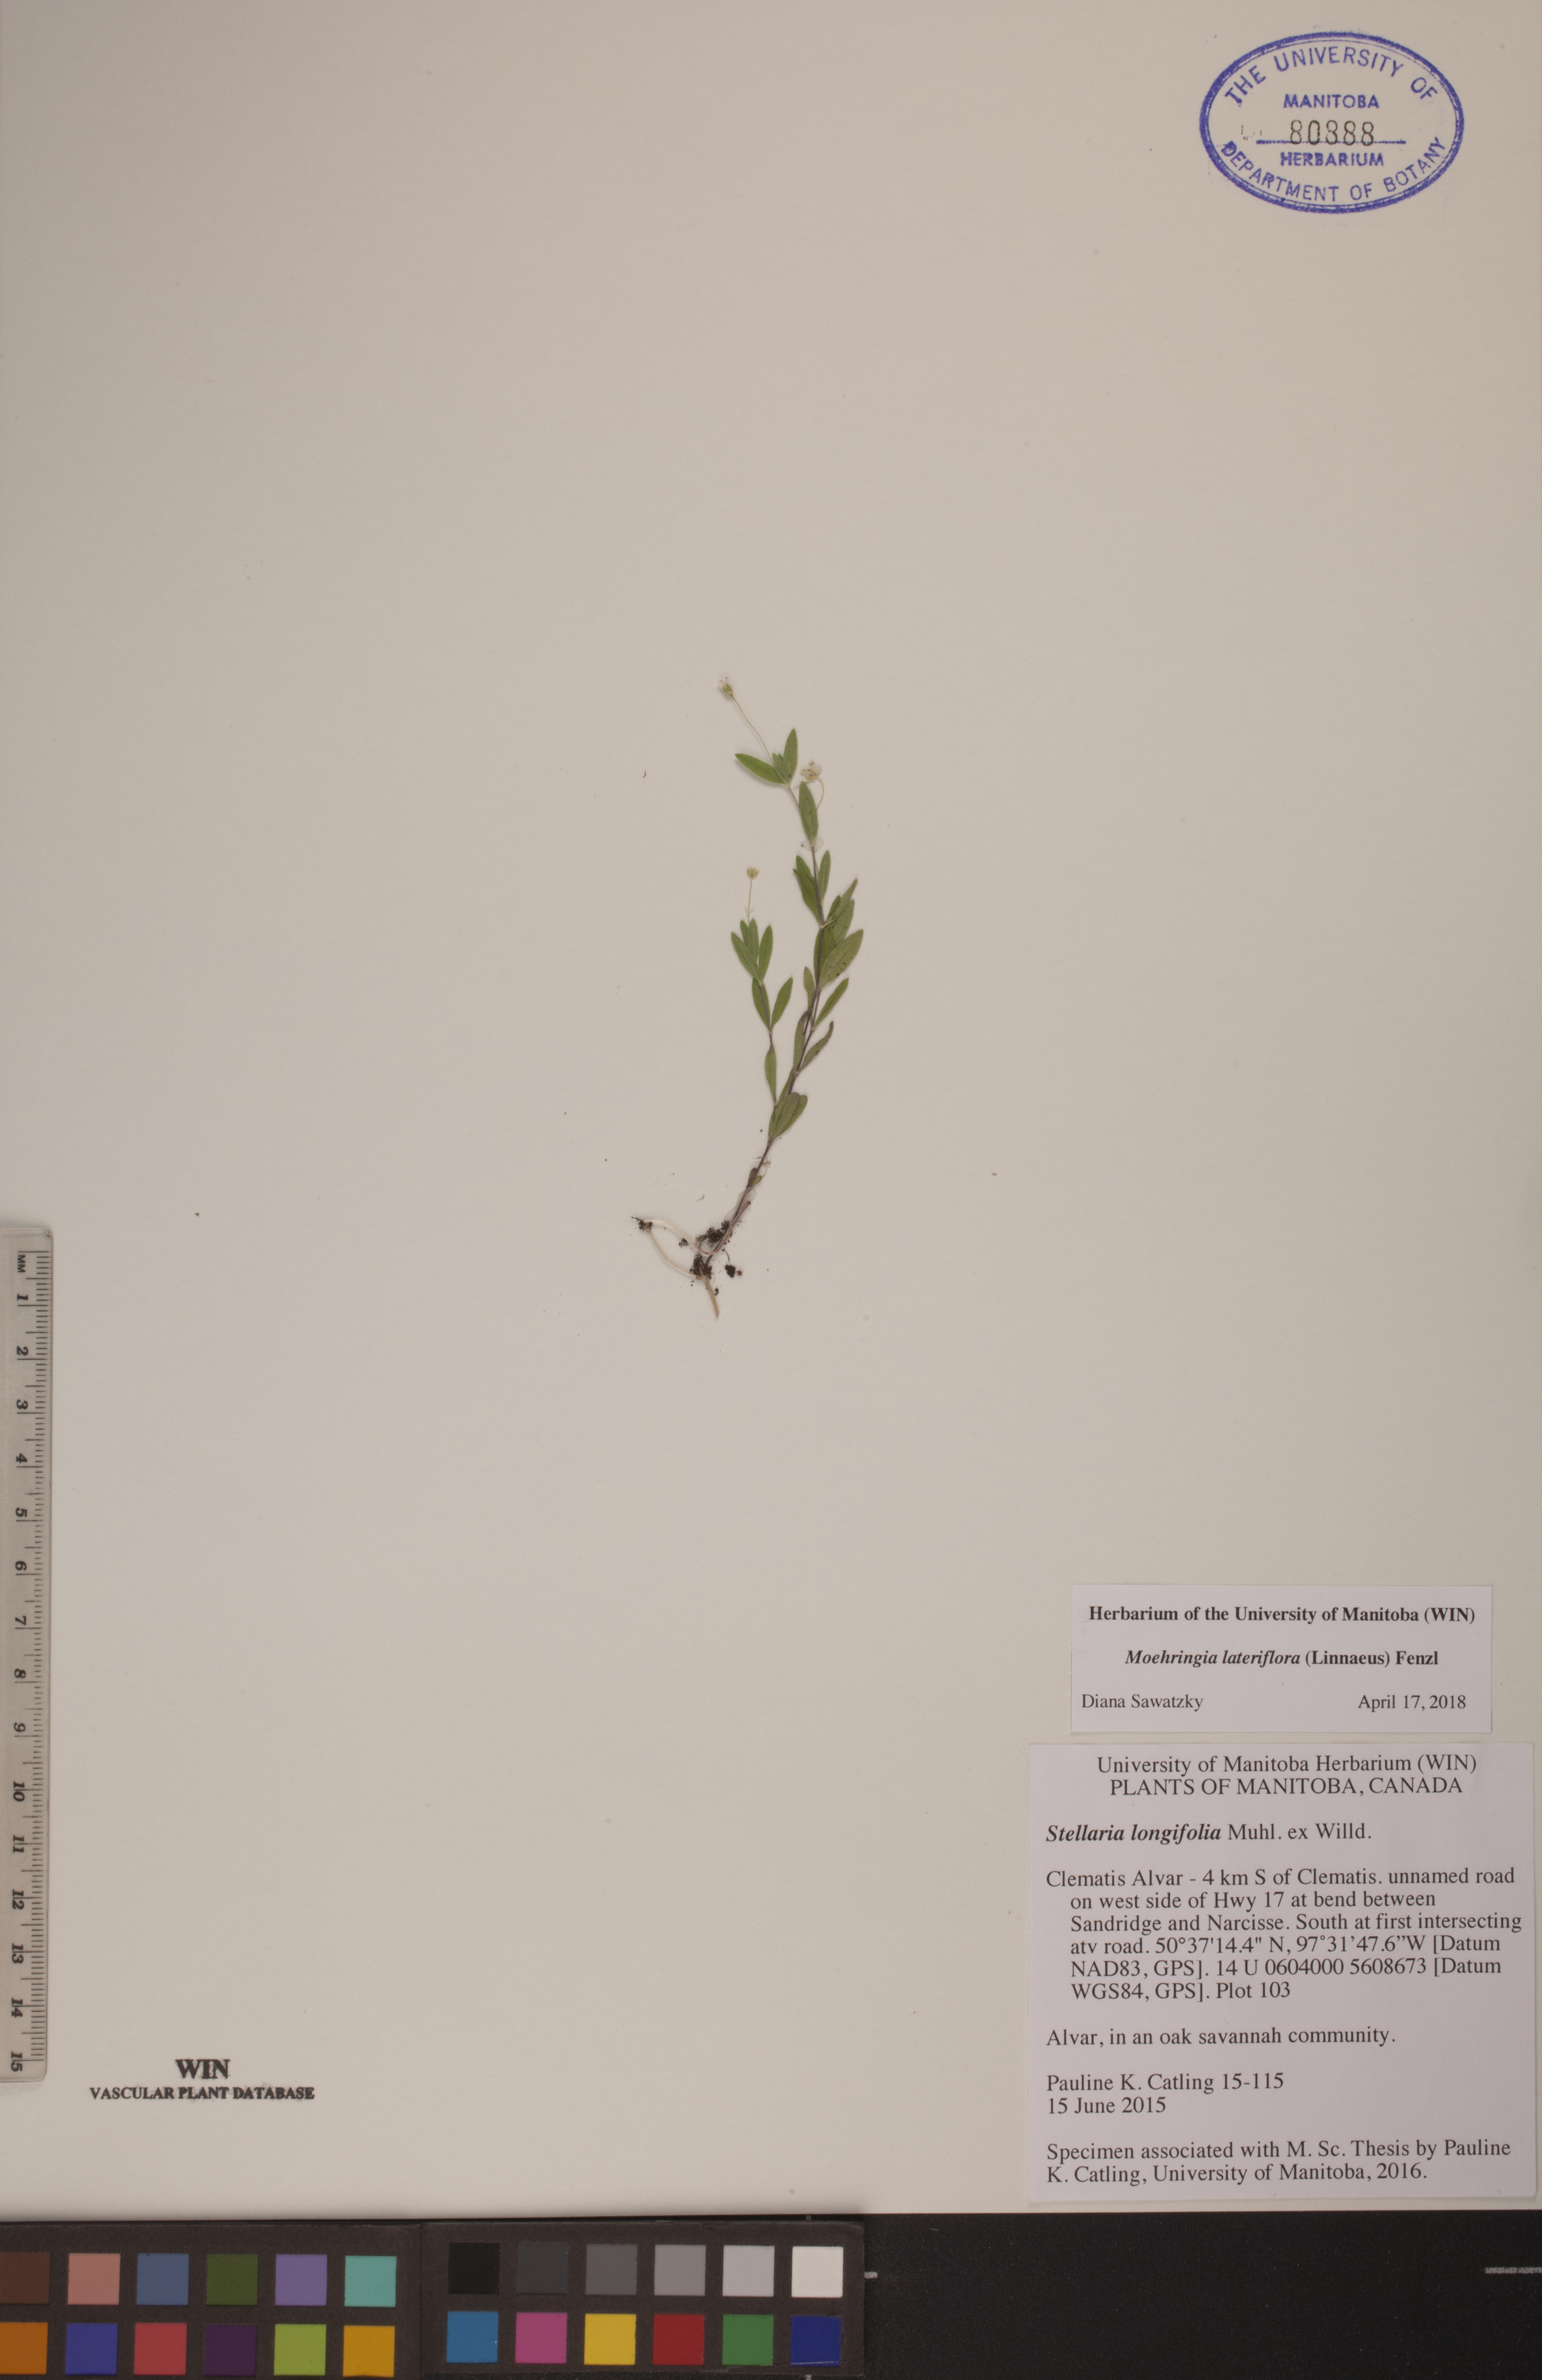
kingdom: Plantae
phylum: Tracheophyta
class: Magnoliopsida
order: Caryophyllales
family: Caryophyllaceae
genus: Moehringia
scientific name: Moehringia lateriflora
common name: Blunt-leaved sandwort
